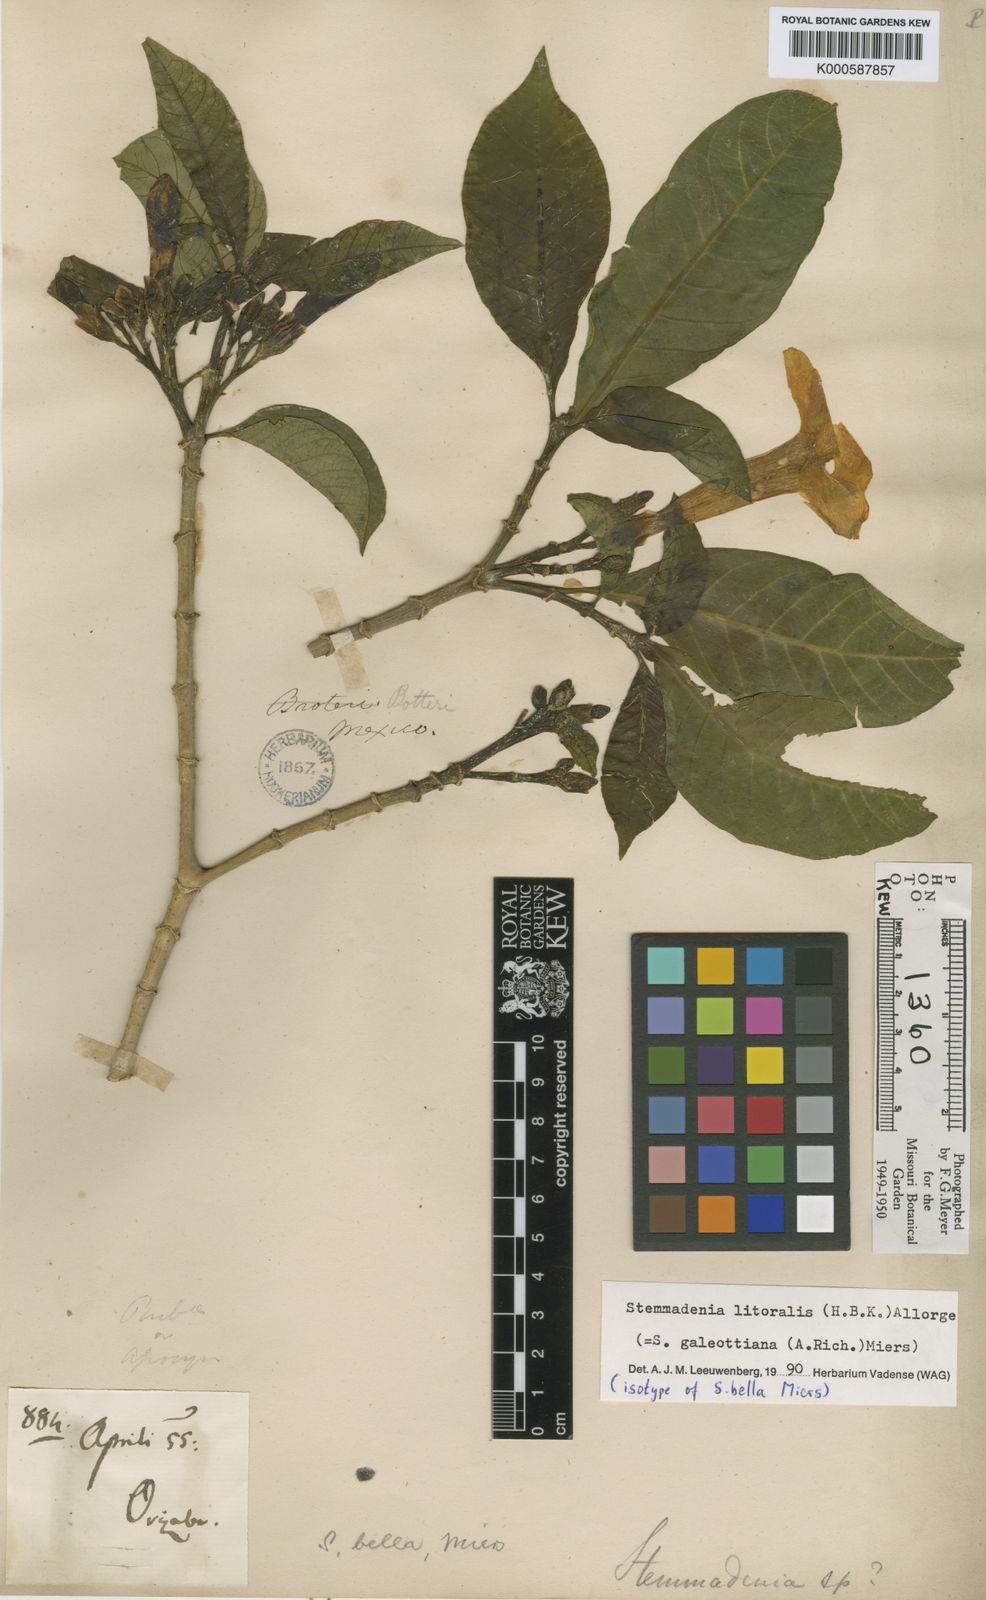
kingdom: Plantae
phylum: Tracheophyta
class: Magnoliopsida
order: Gentianales
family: Apocynaceae
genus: Tabernaemontana
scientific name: Tabernaemontana litoralis
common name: Milkwood
